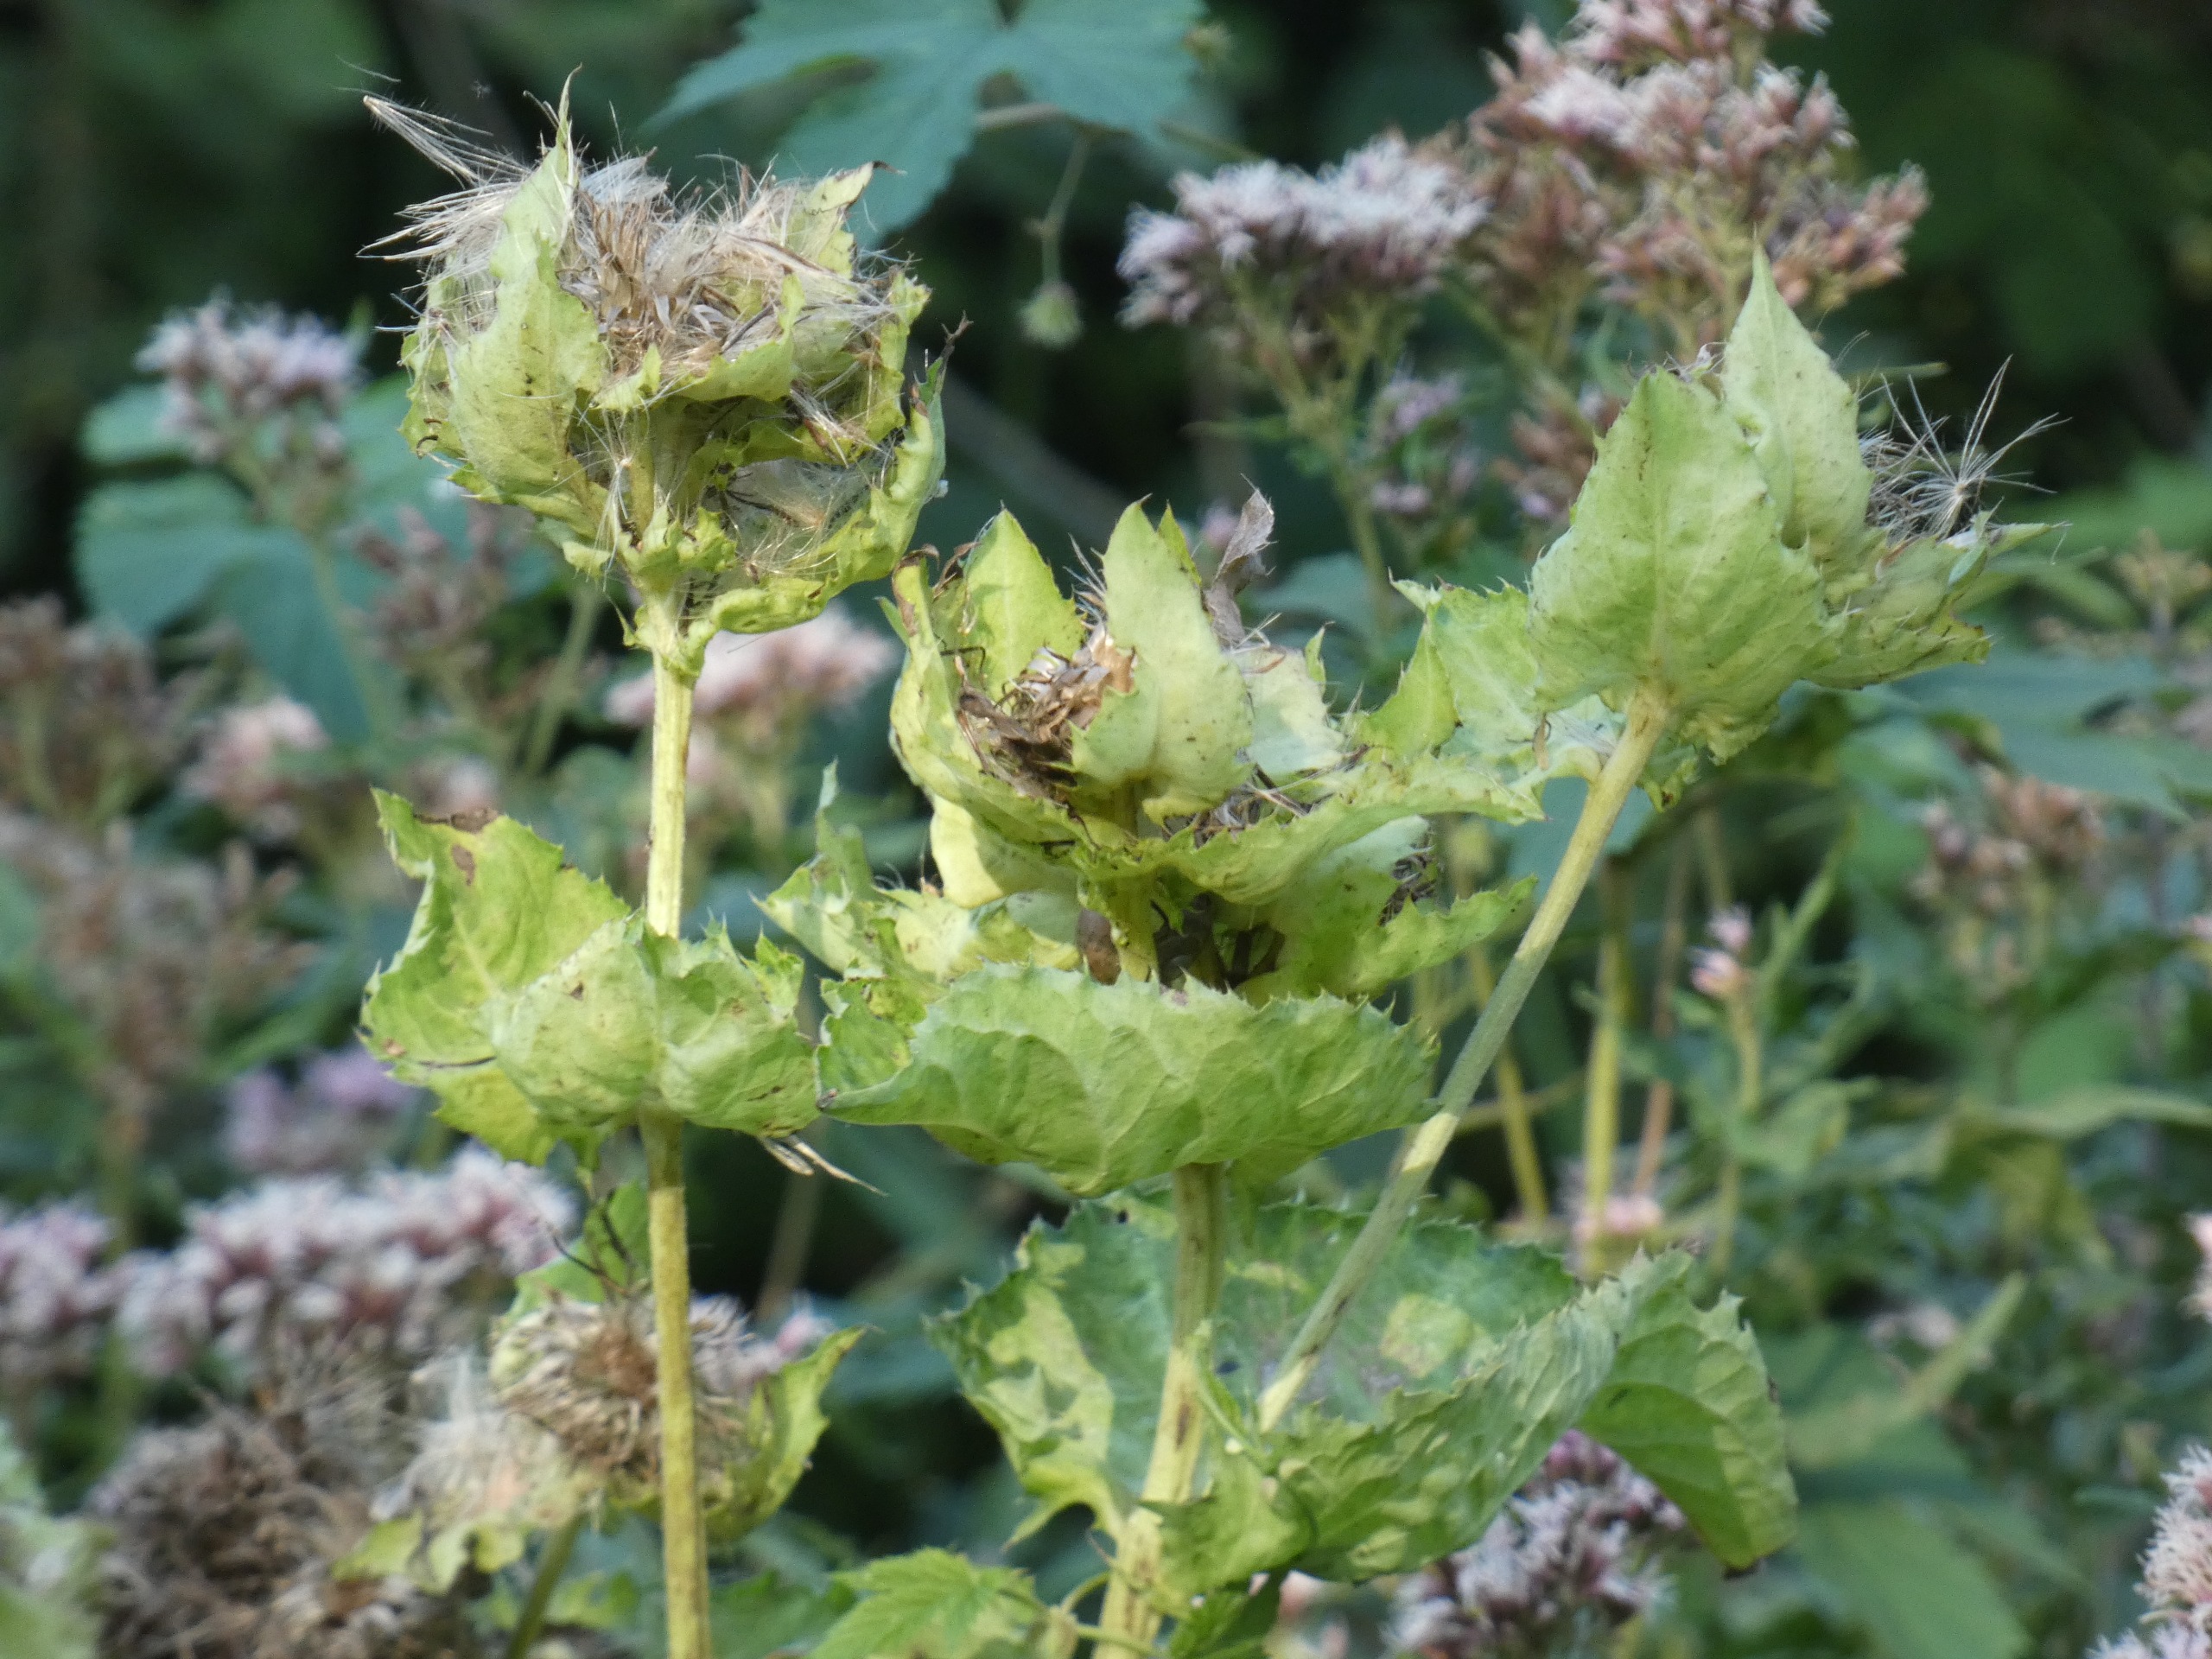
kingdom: Plantae
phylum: Tracheophyta
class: Magnoliopsida
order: Asterales
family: Asteraceae
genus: Cirsium
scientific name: Cirsium oleraceum
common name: Kål-tidsel
